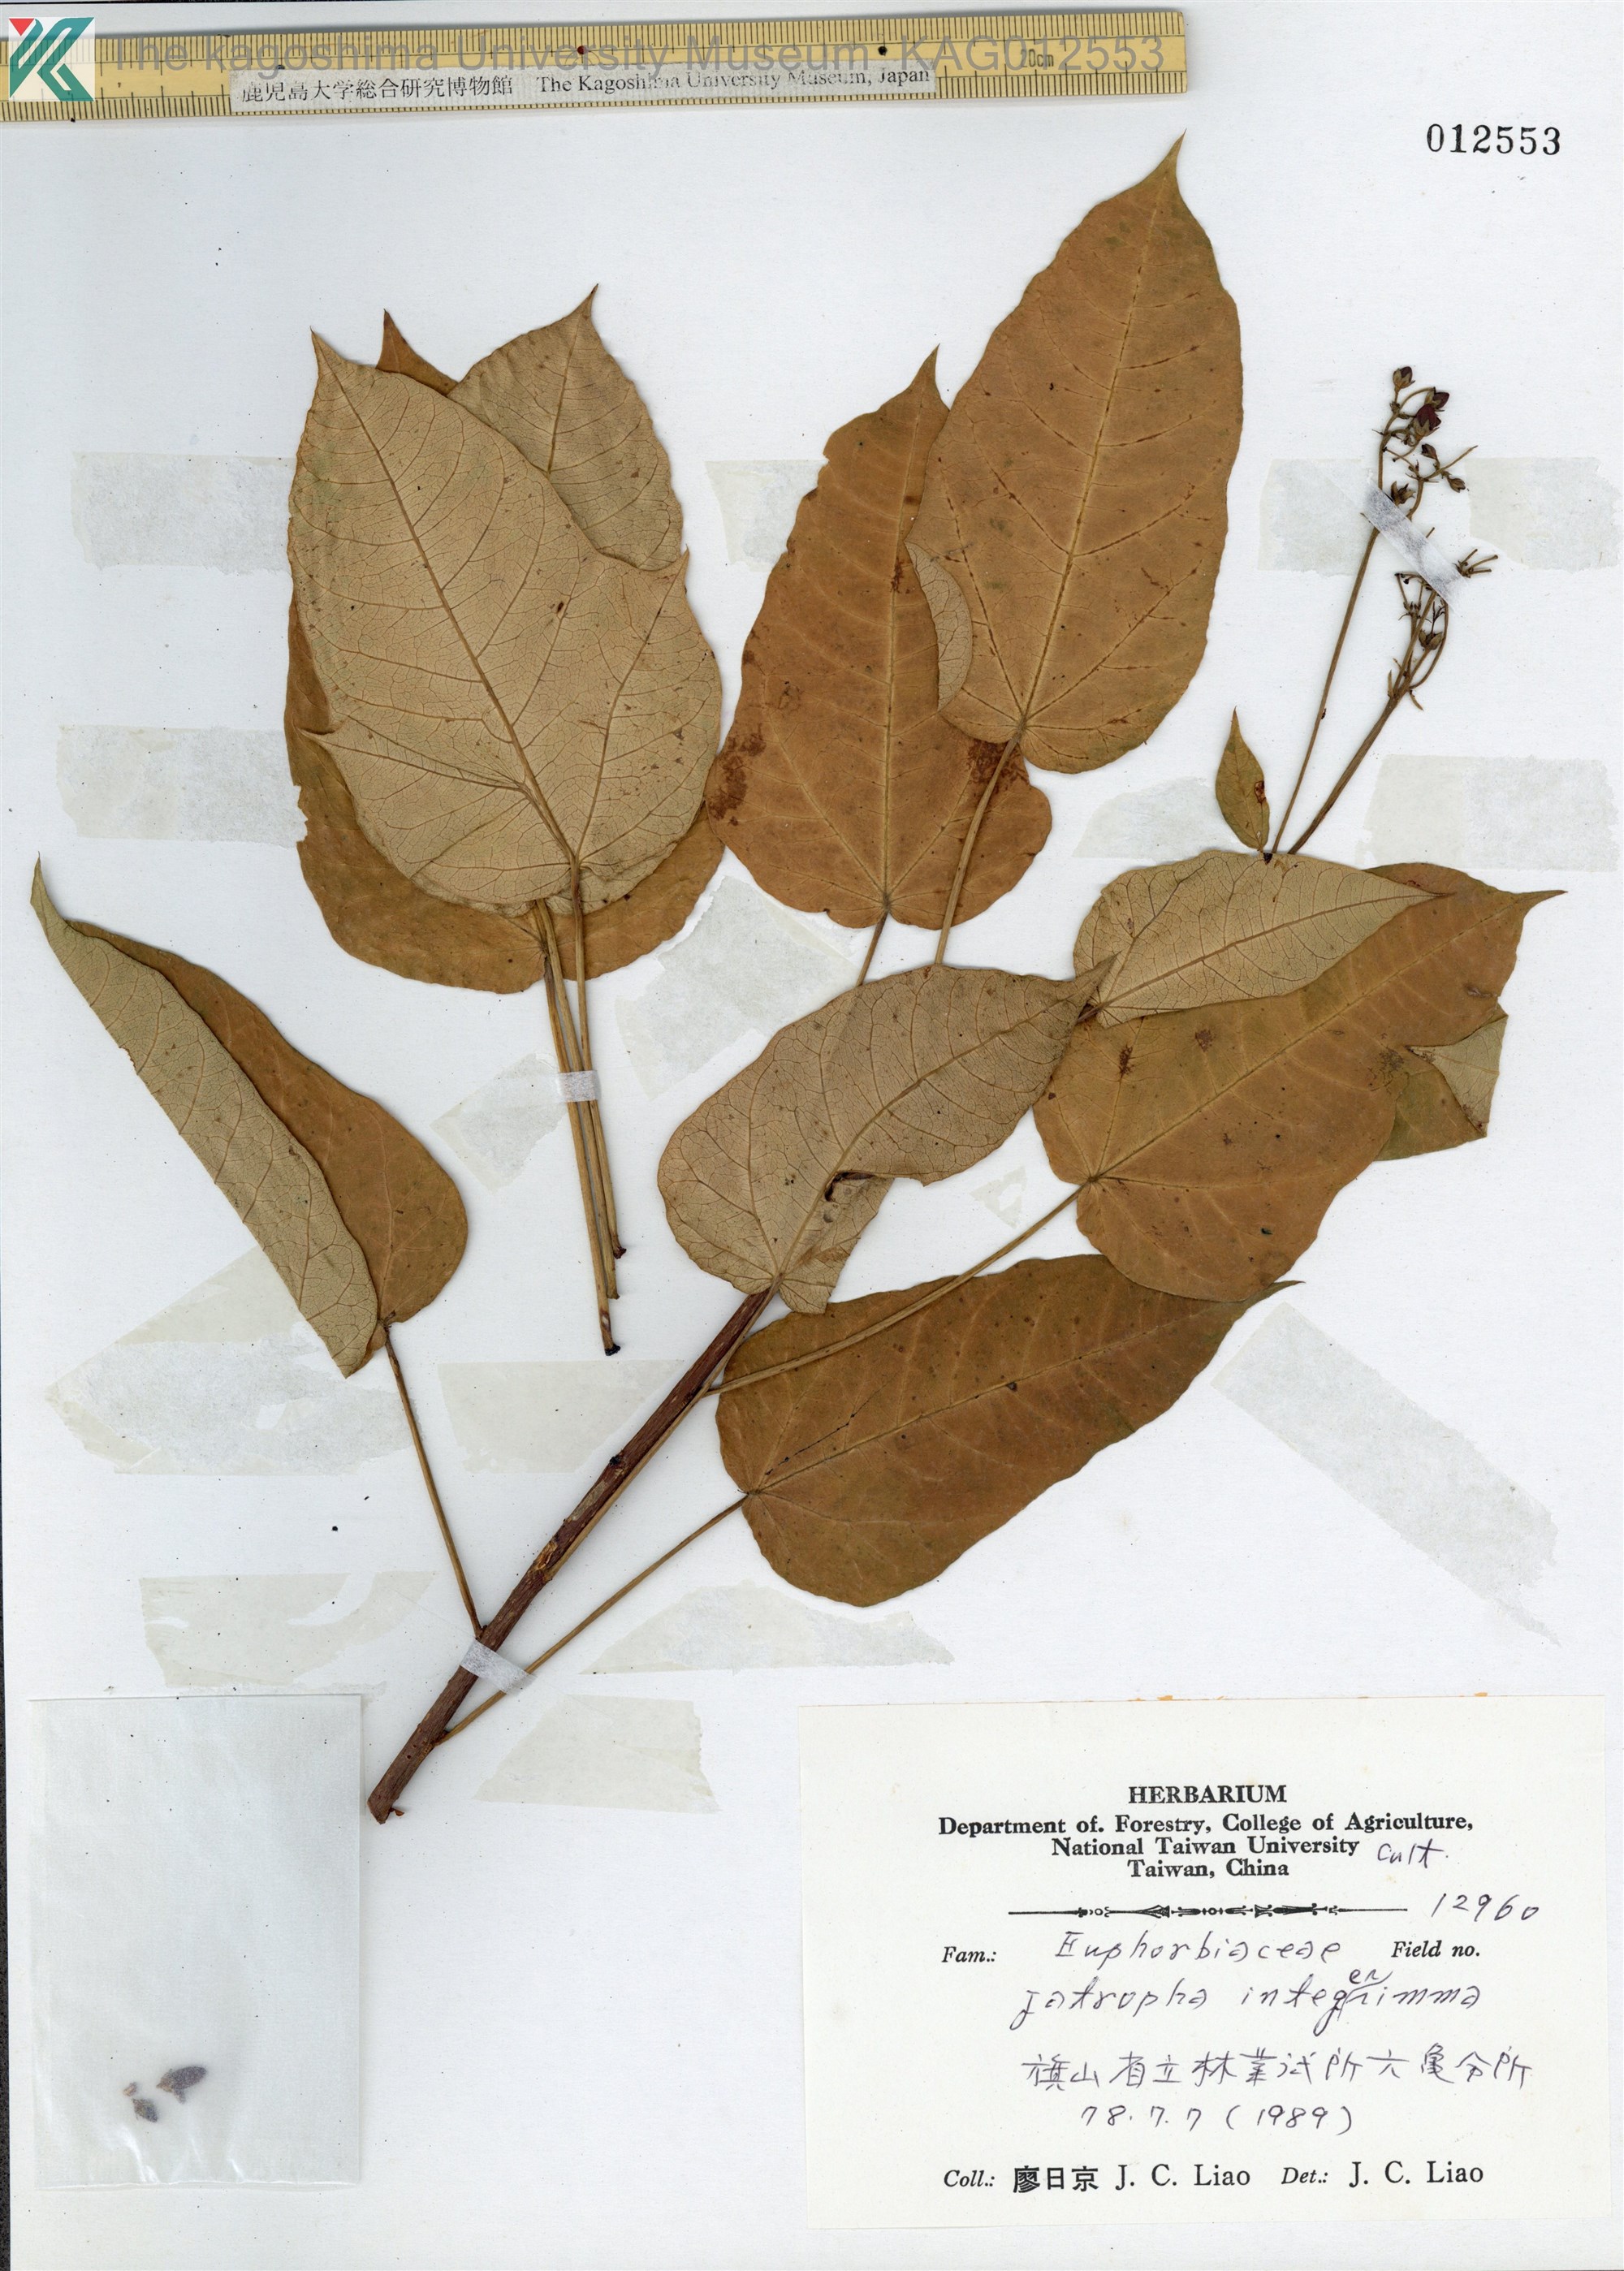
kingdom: Plantae
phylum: Tracheophyta
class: Magnoliopsida
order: Malpighiales
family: Euphorbiaceae
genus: Jatropha
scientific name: Jatropha integerrima
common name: Peregrina
